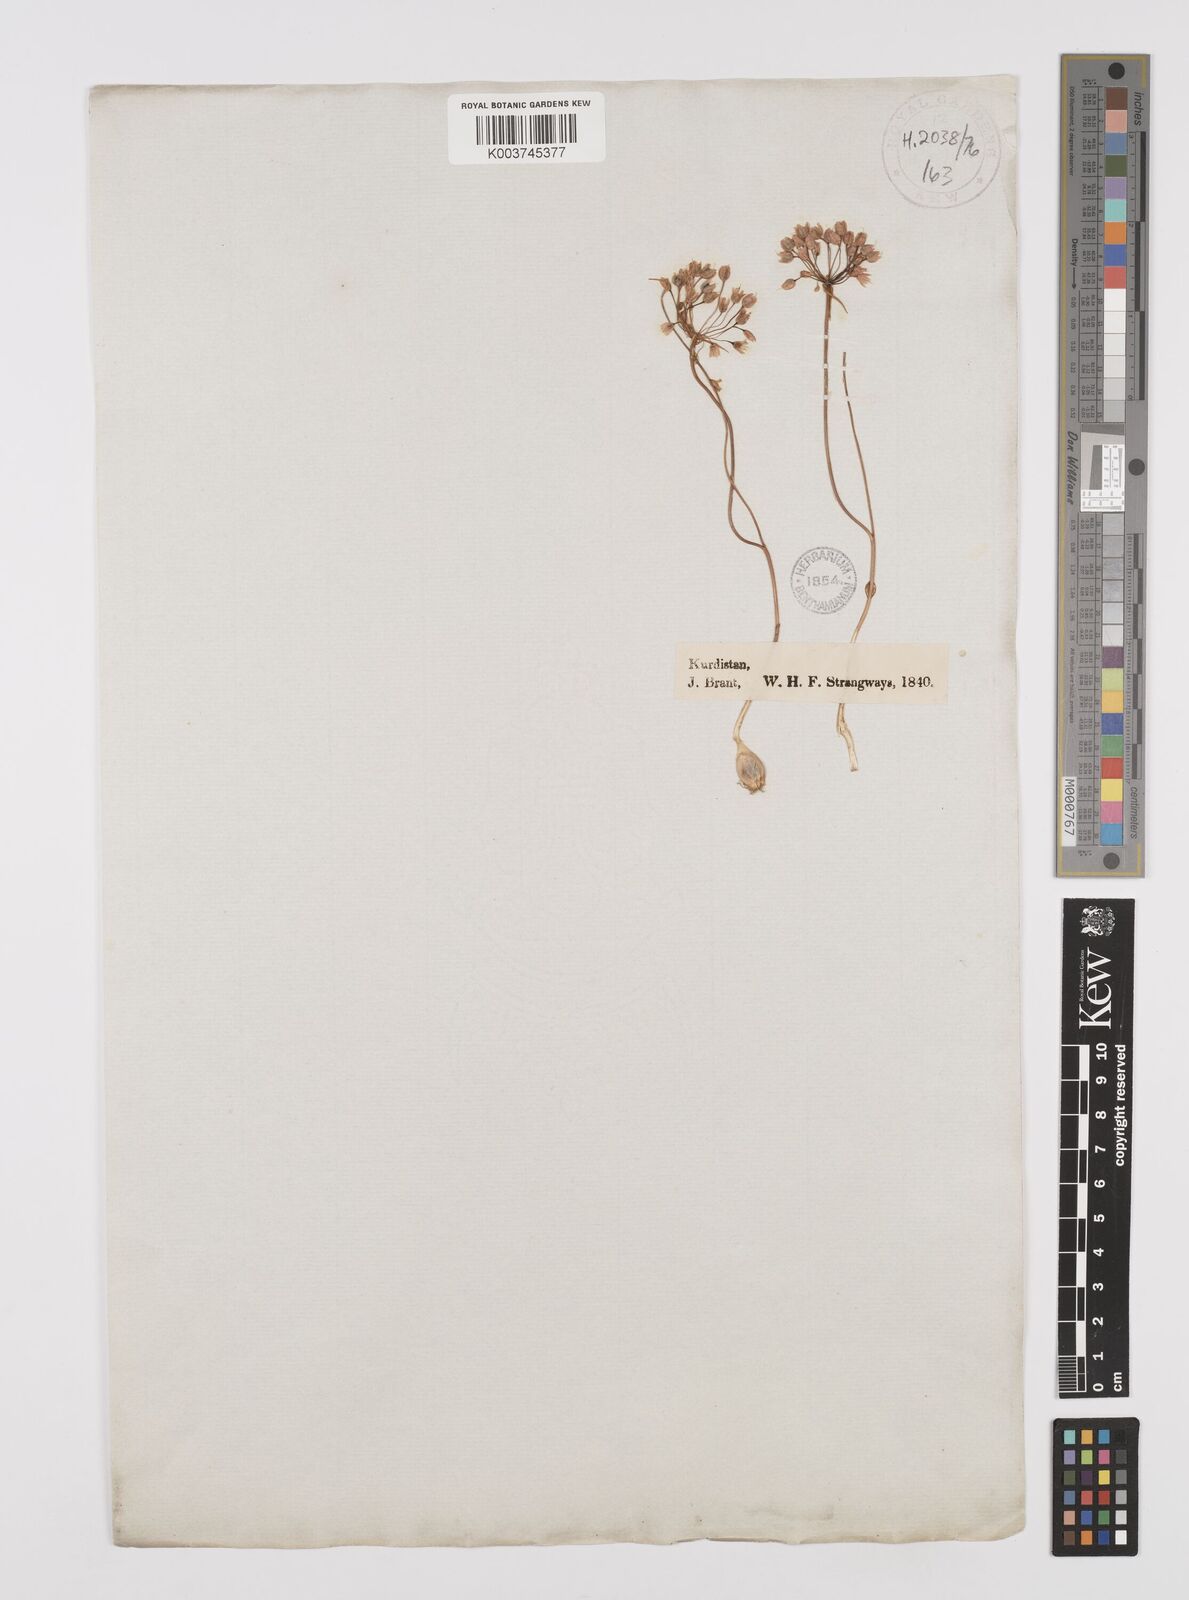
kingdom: Plantae
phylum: Tracheophyta
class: Liliopsida
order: Asparagales
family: Amaryllidaceae
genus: Allium
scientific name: Allium
